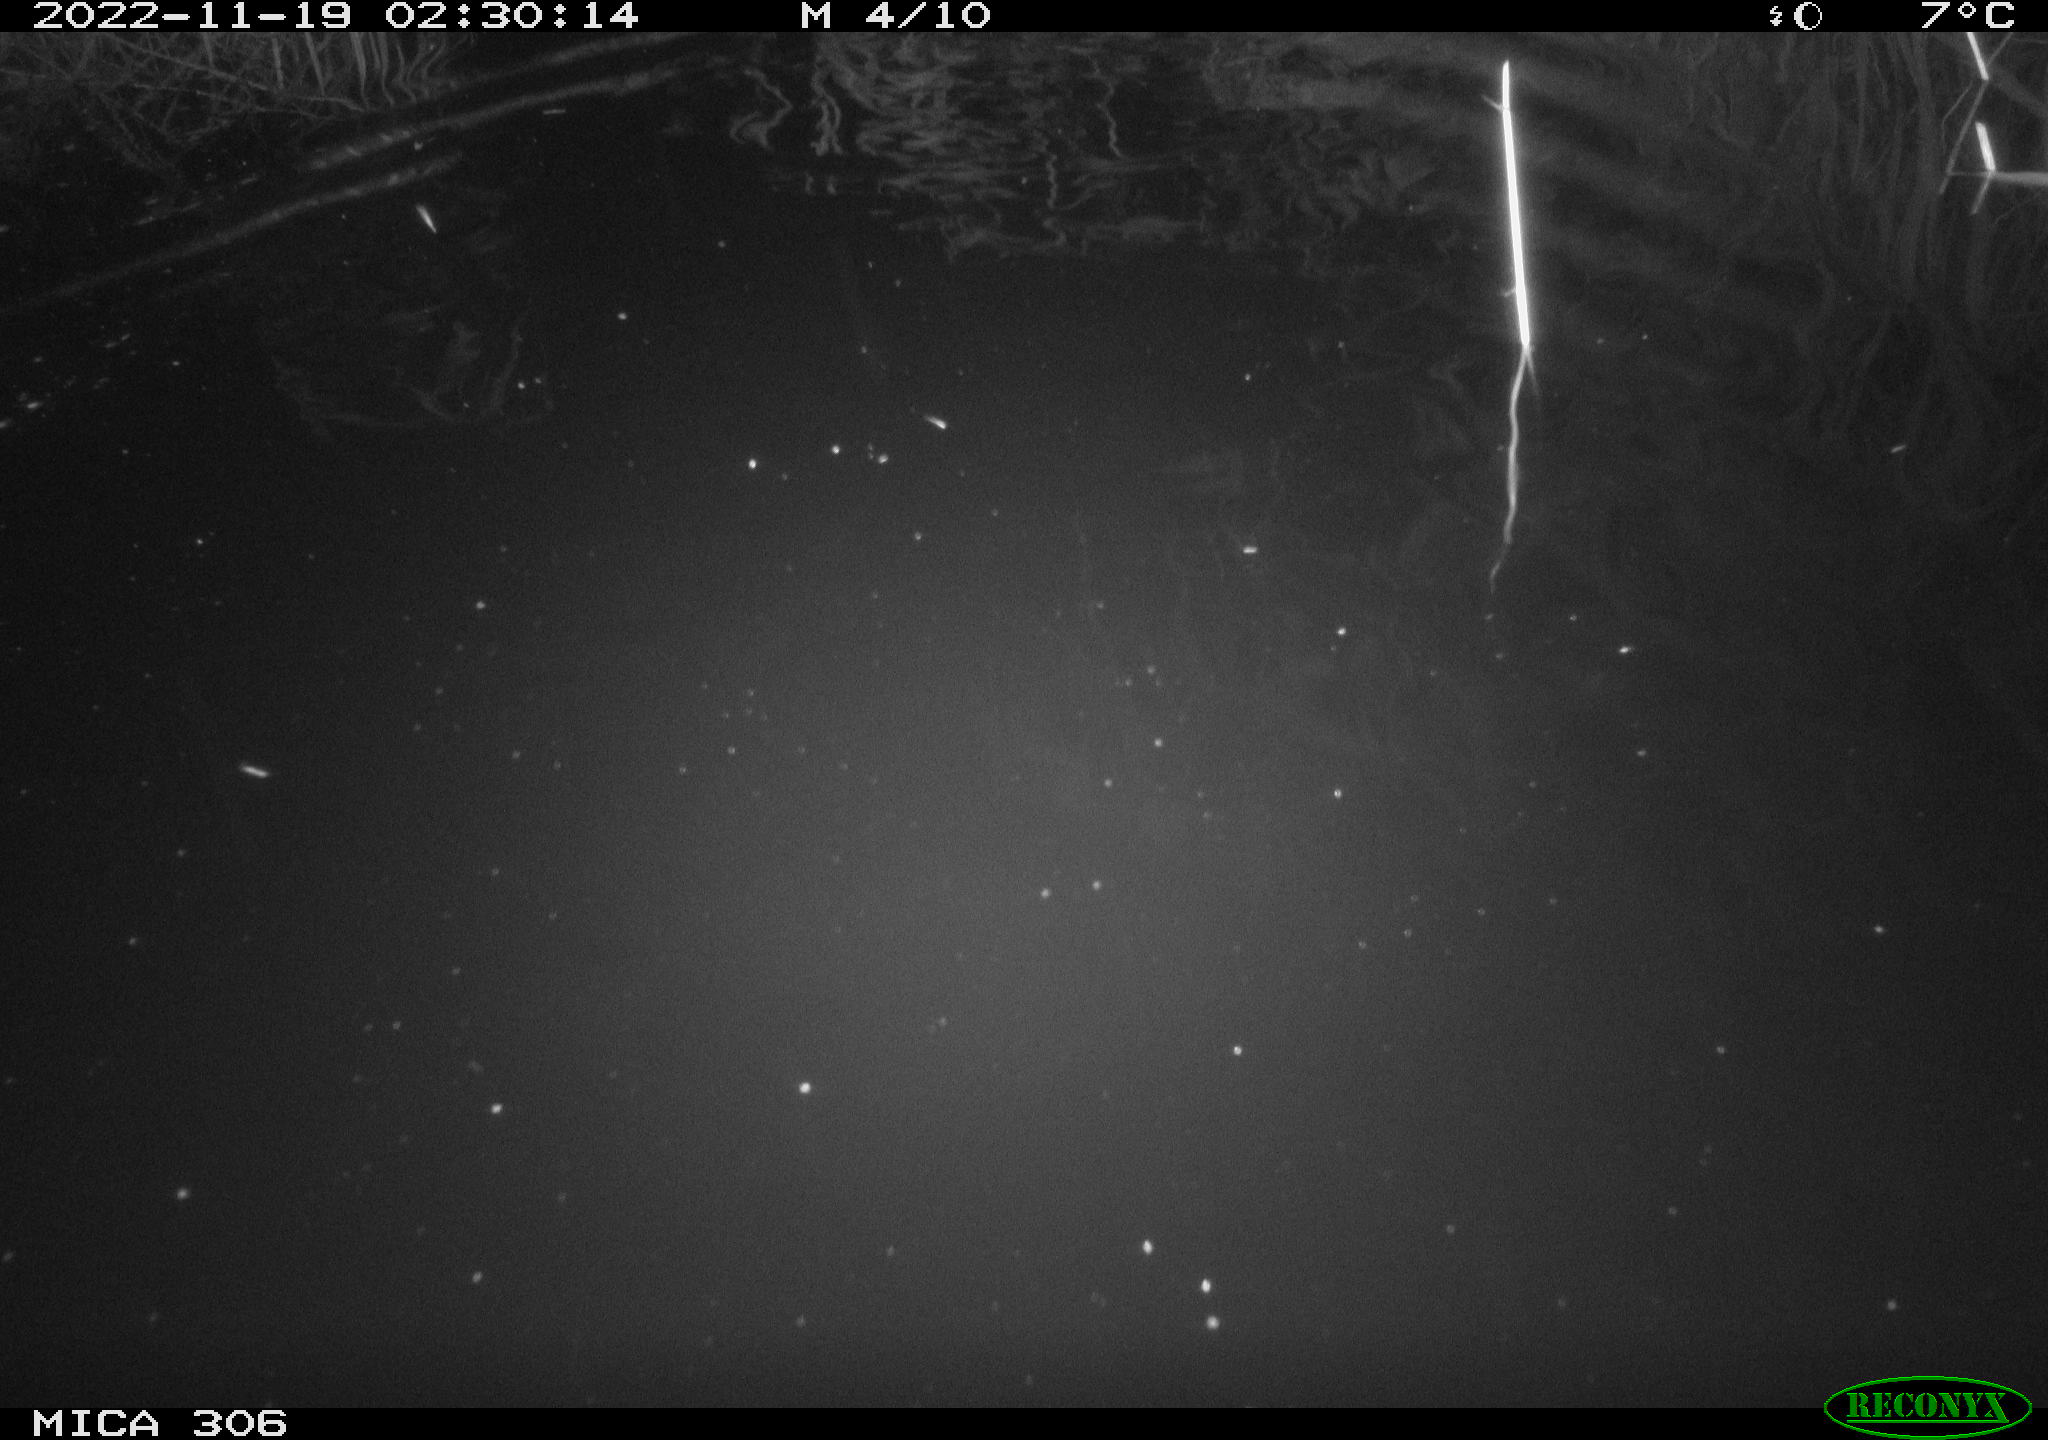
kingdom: Animalia
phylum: Chordata
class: Mammalia
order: Rodentia
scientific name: Rodentia
